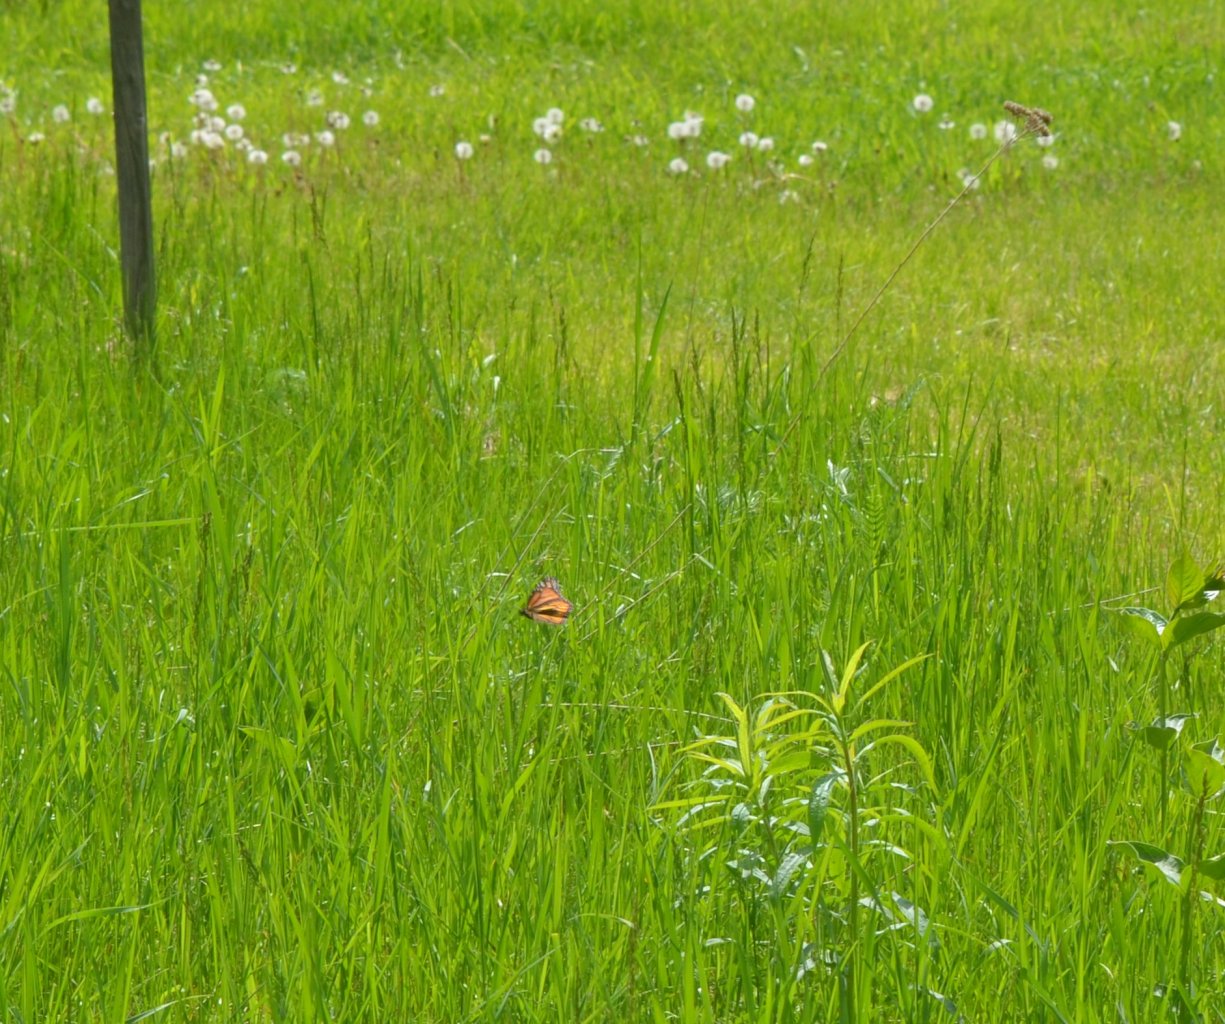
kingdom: Animalia
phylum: Arthropoda
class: Insecta
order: Lepidoptera
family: Nymphalidae
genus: Danaus
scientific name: Danaus plexippus
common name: Monarch
